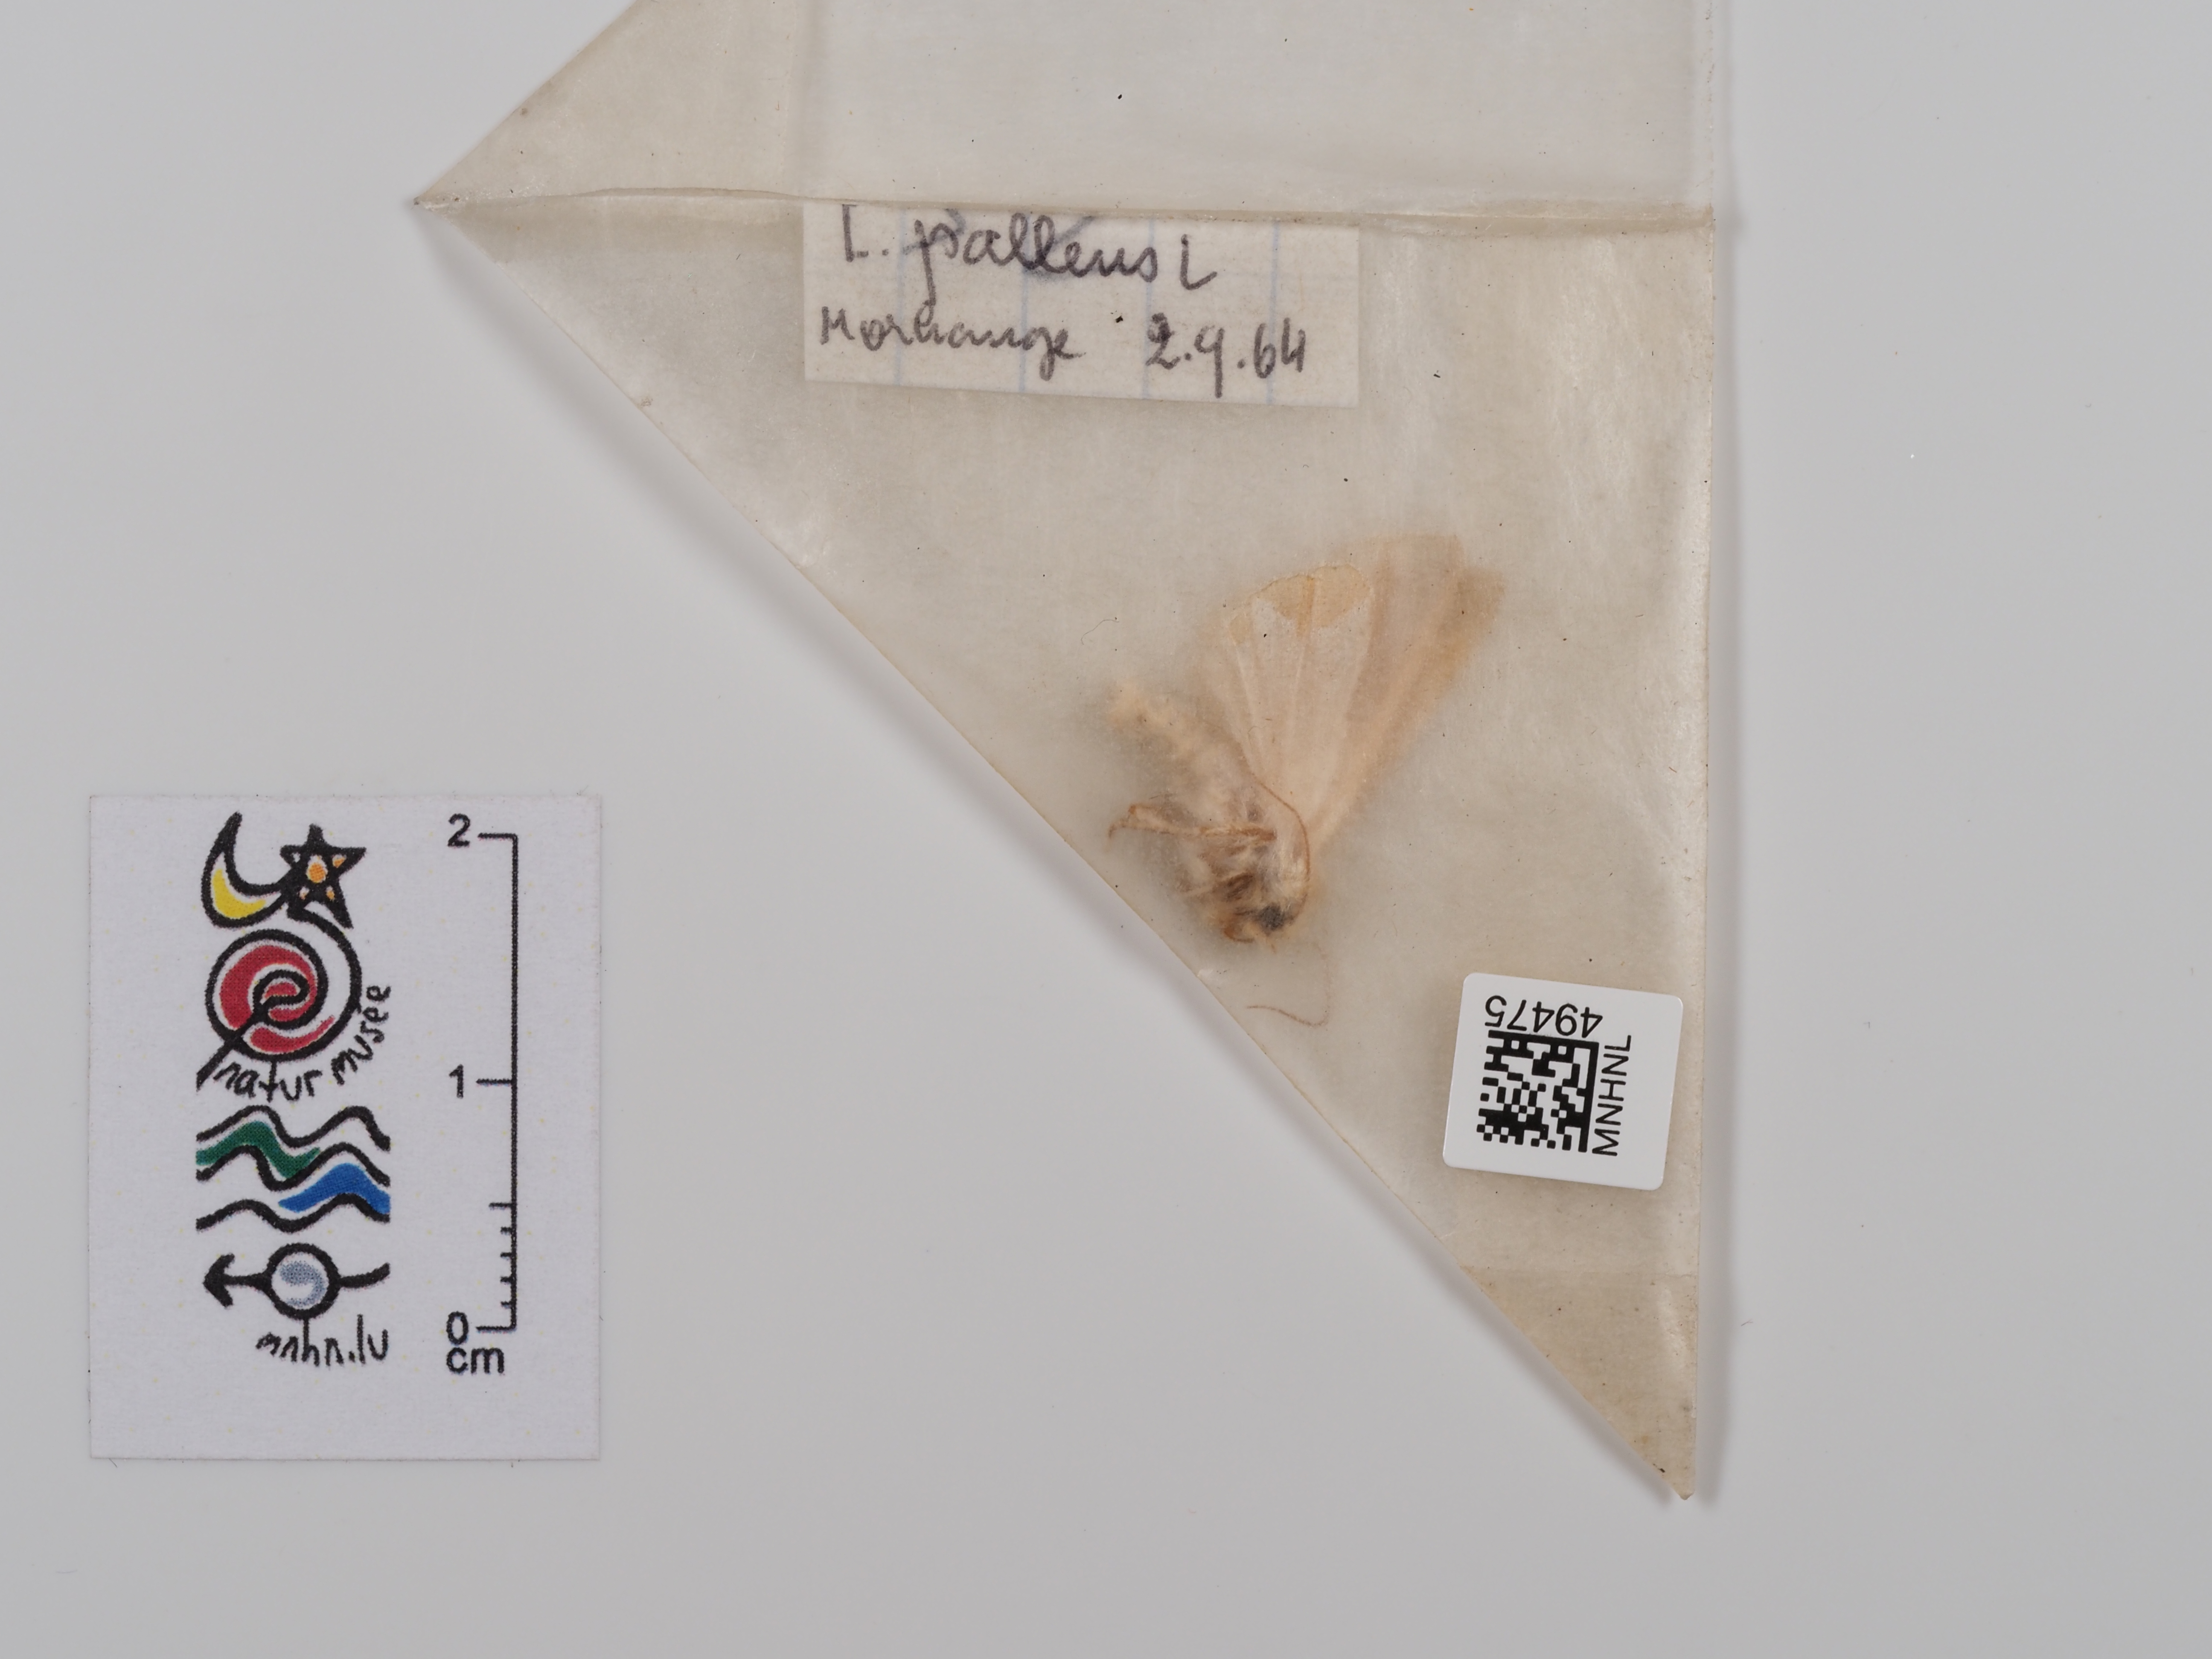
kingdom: Animalia
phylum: Arthropoda
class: Insecta
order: Lepidoptera
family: Noctuidae
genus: Mythimna
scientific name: Mythimna pallens
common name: Common wainscot
